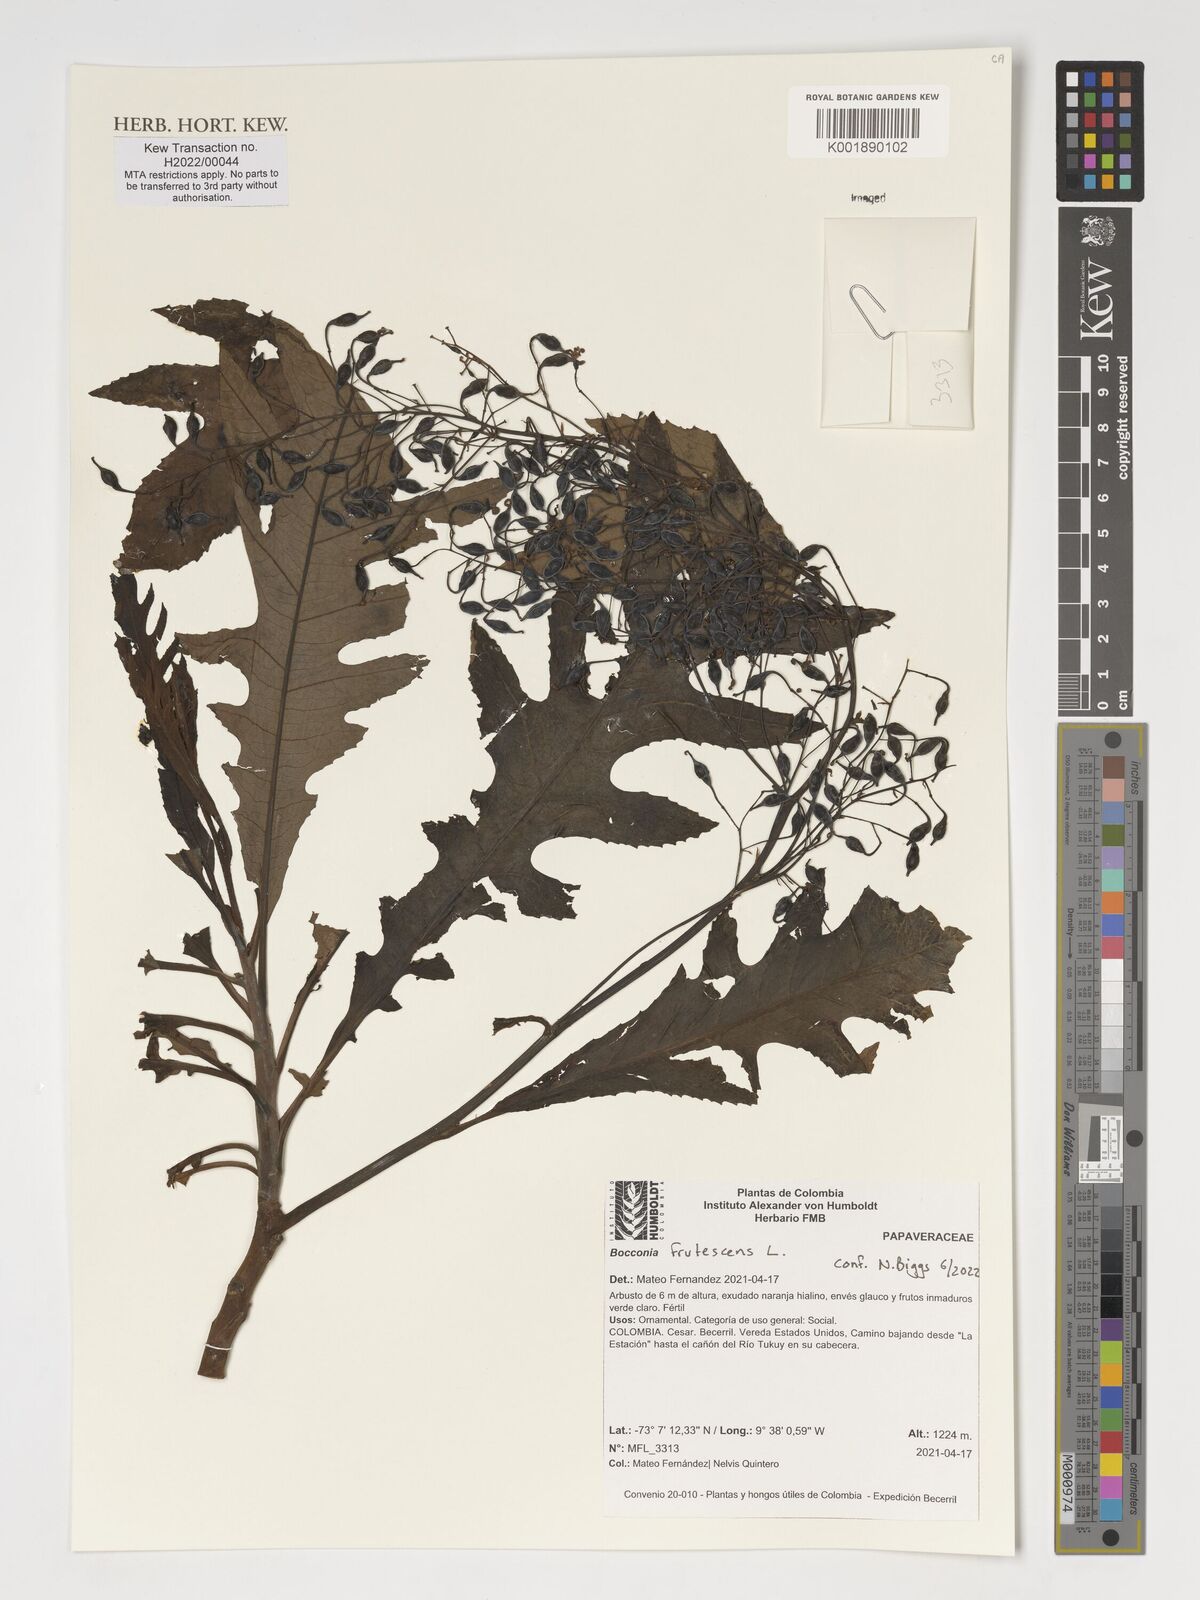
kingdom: Plantae
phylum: Tracheophyta
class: Magnoliopsida
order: Ranunculales
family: Papaveraceae
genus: Bocconia
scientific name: Bocconia frutescens
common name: Tree poppy
